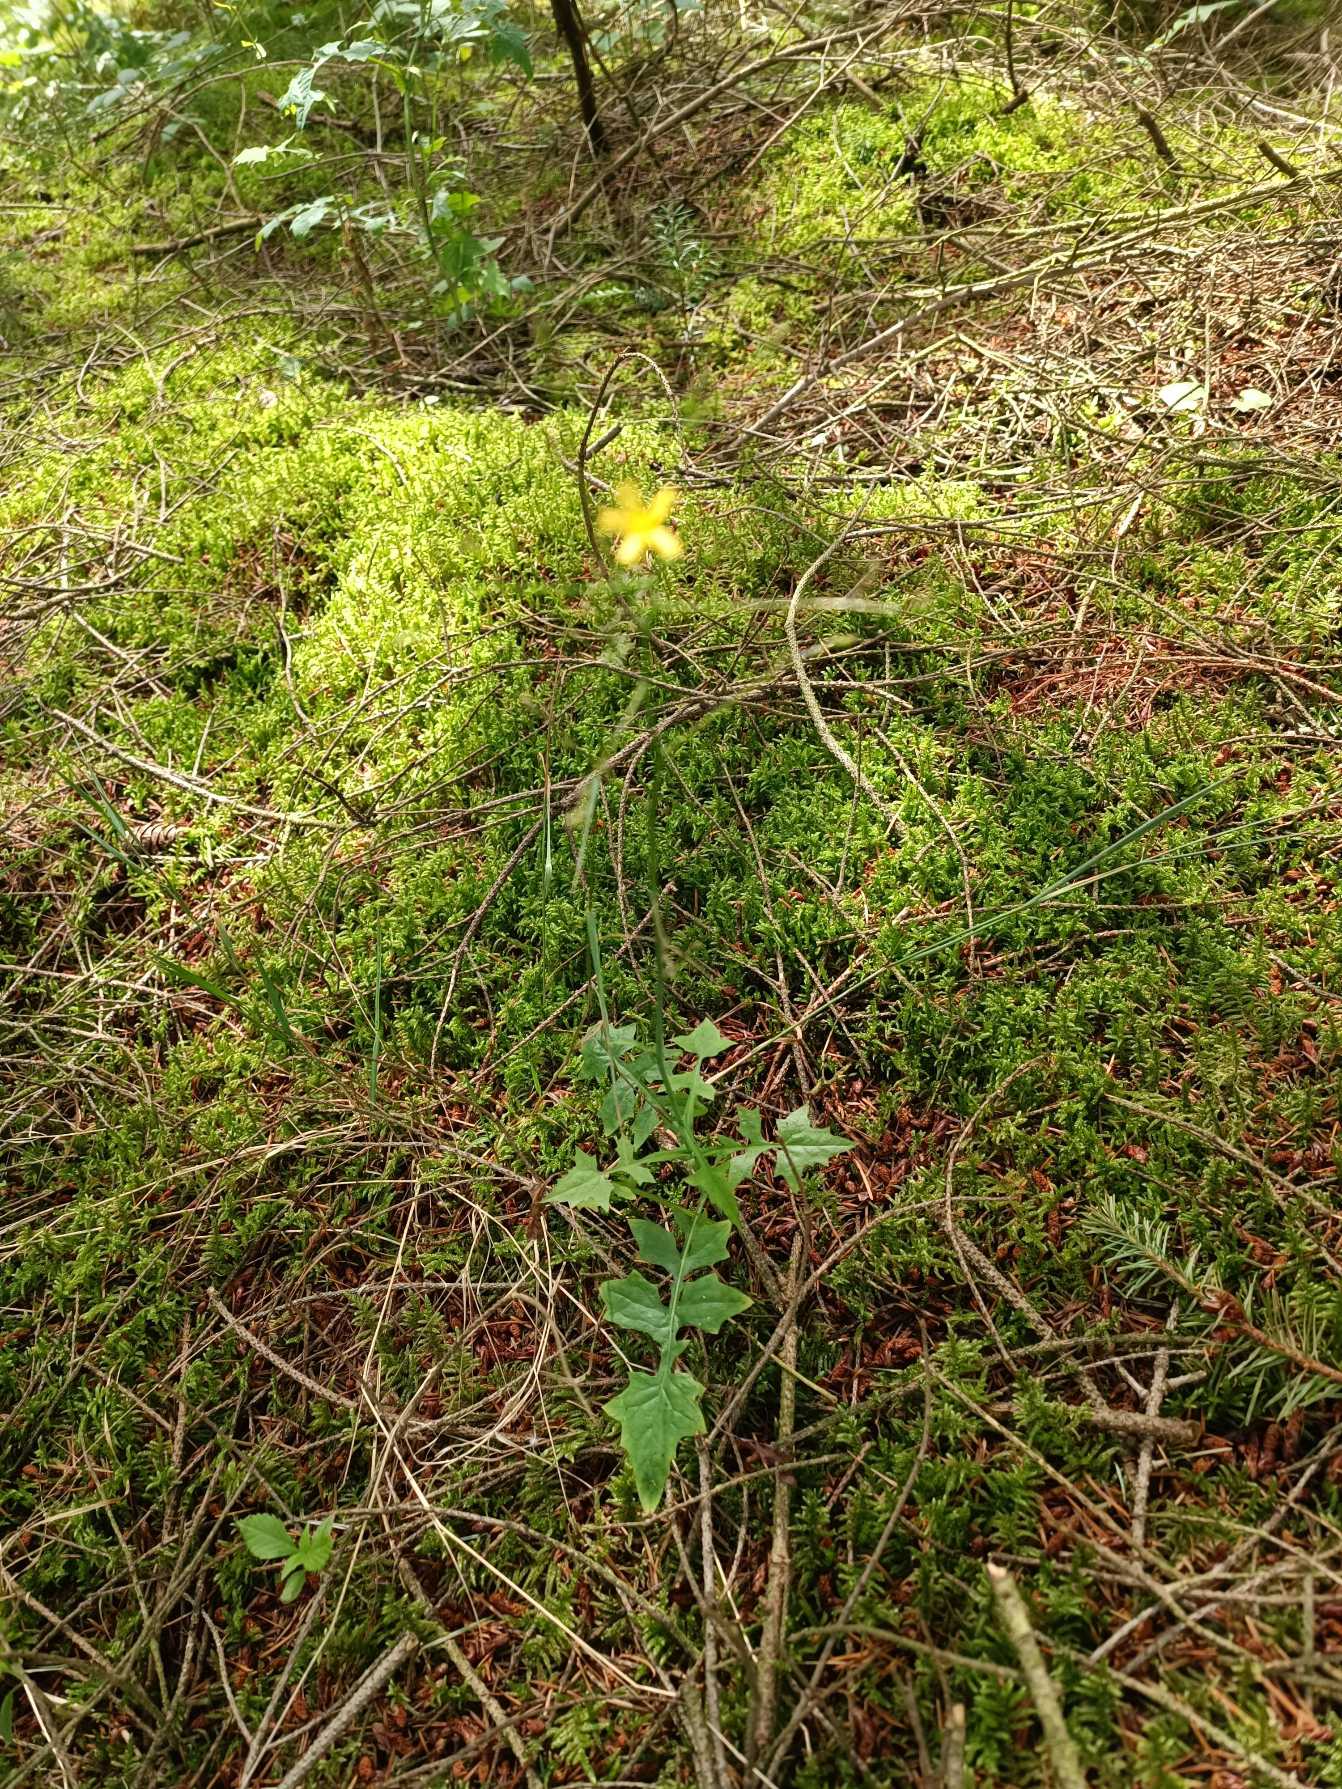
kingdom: Plantae
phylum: Tracheophyta
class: Magnoliopsida
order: Asterales
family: Asteraceae
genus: Mycelis
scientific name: Mycelis muralis
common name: Skov-salat
